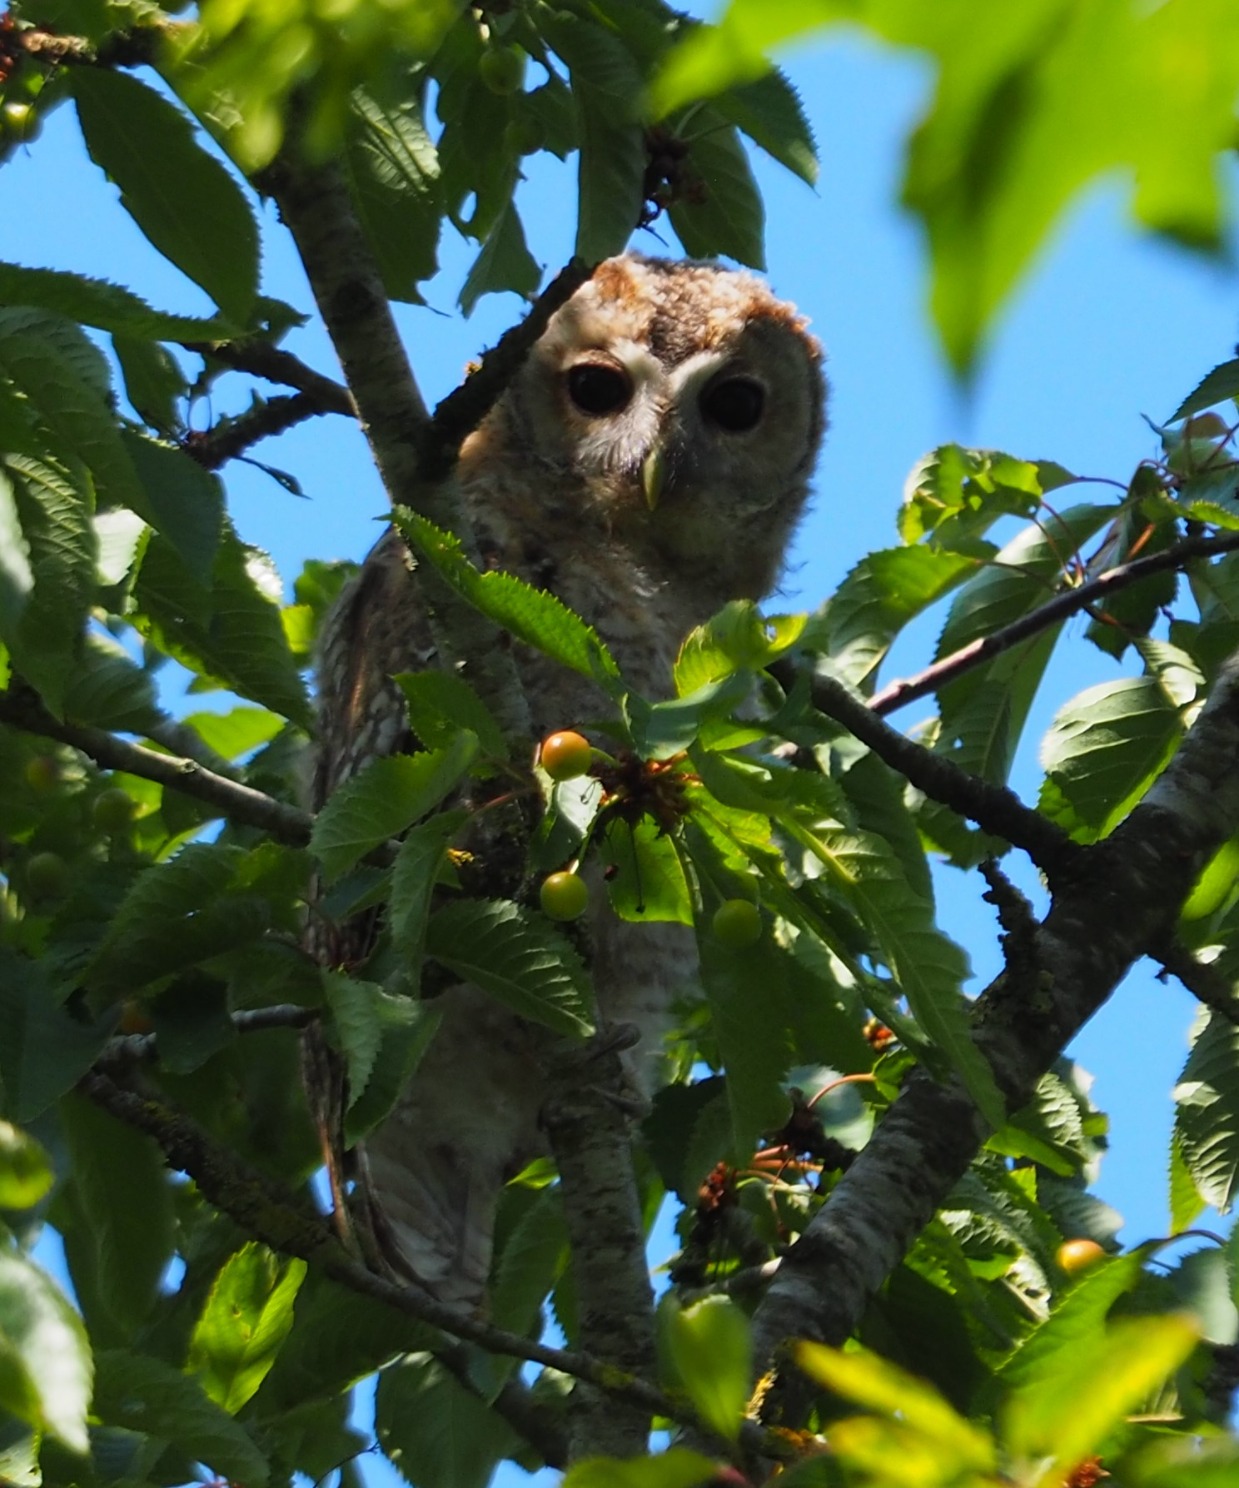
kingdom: Animalia
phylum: Chordata
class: Aves
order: Strigiformes
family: Strigidae
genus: Strix
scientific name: Strix aluco
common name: Natugle
